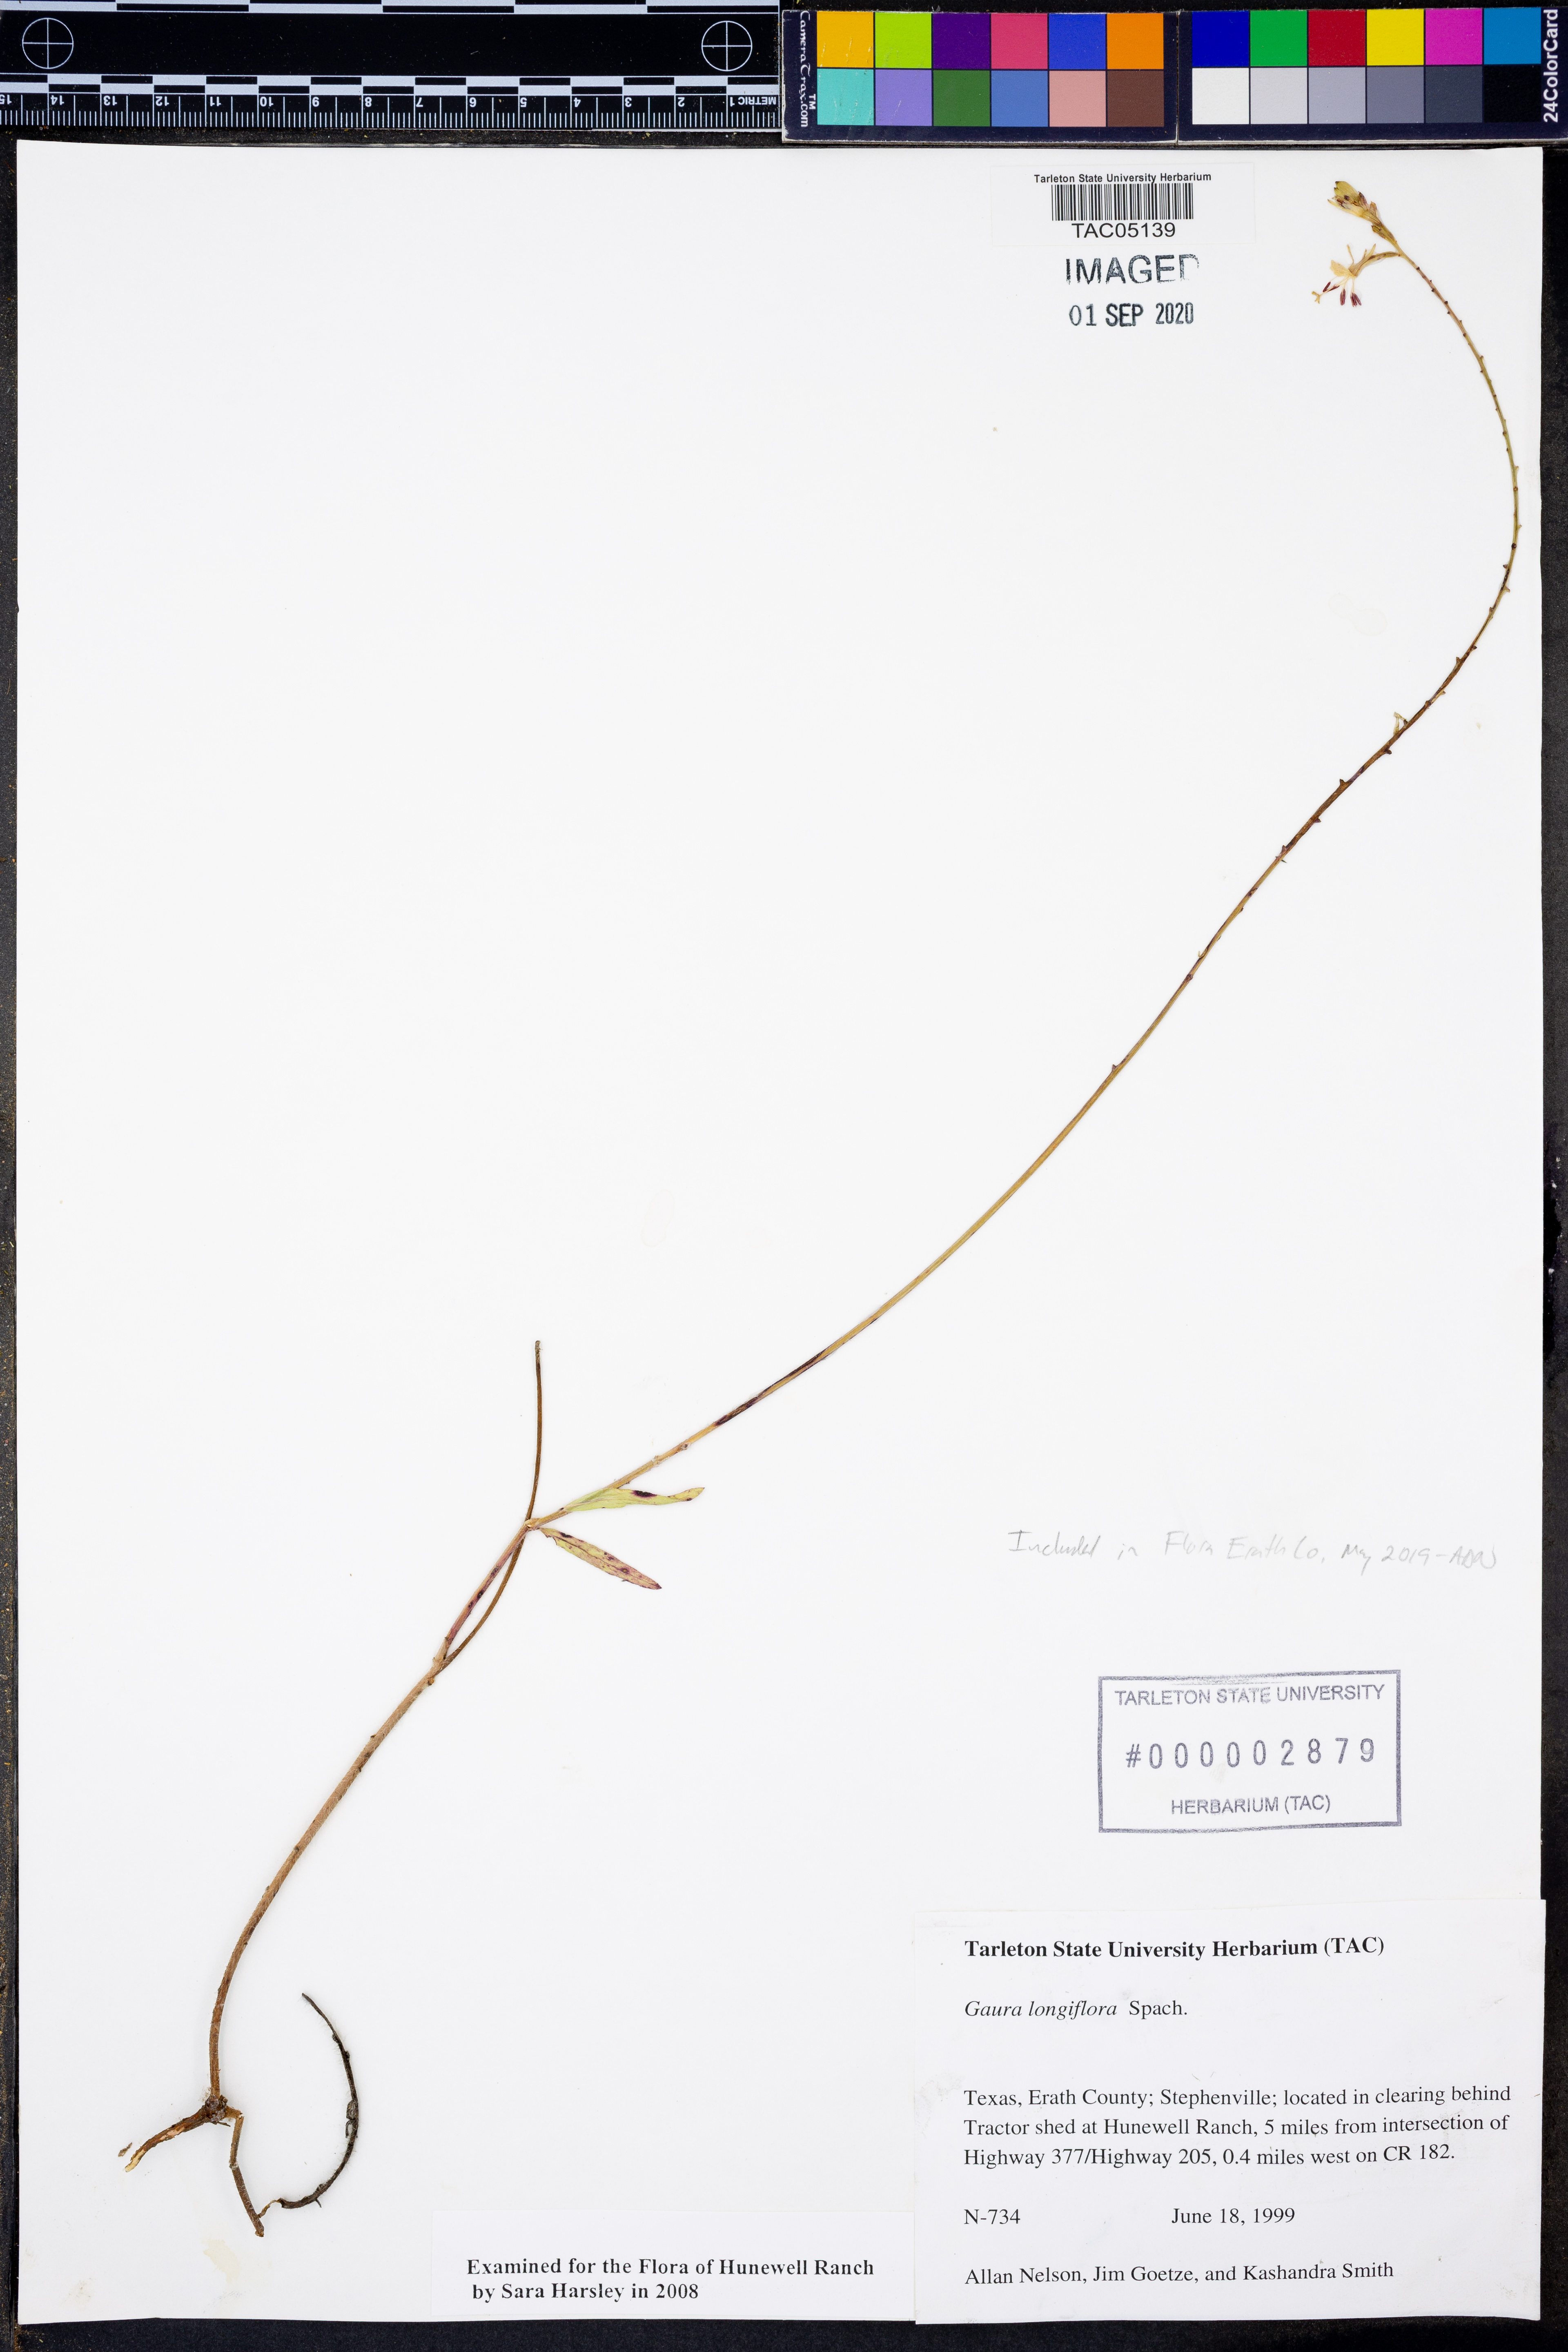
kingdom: Plantae
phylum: Tracheophyta
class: Magnoliopsida
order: Myrtales
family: Onagraceae
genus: Oenothera
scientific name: Oenothera filiformis
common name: Longflower beeblossom
